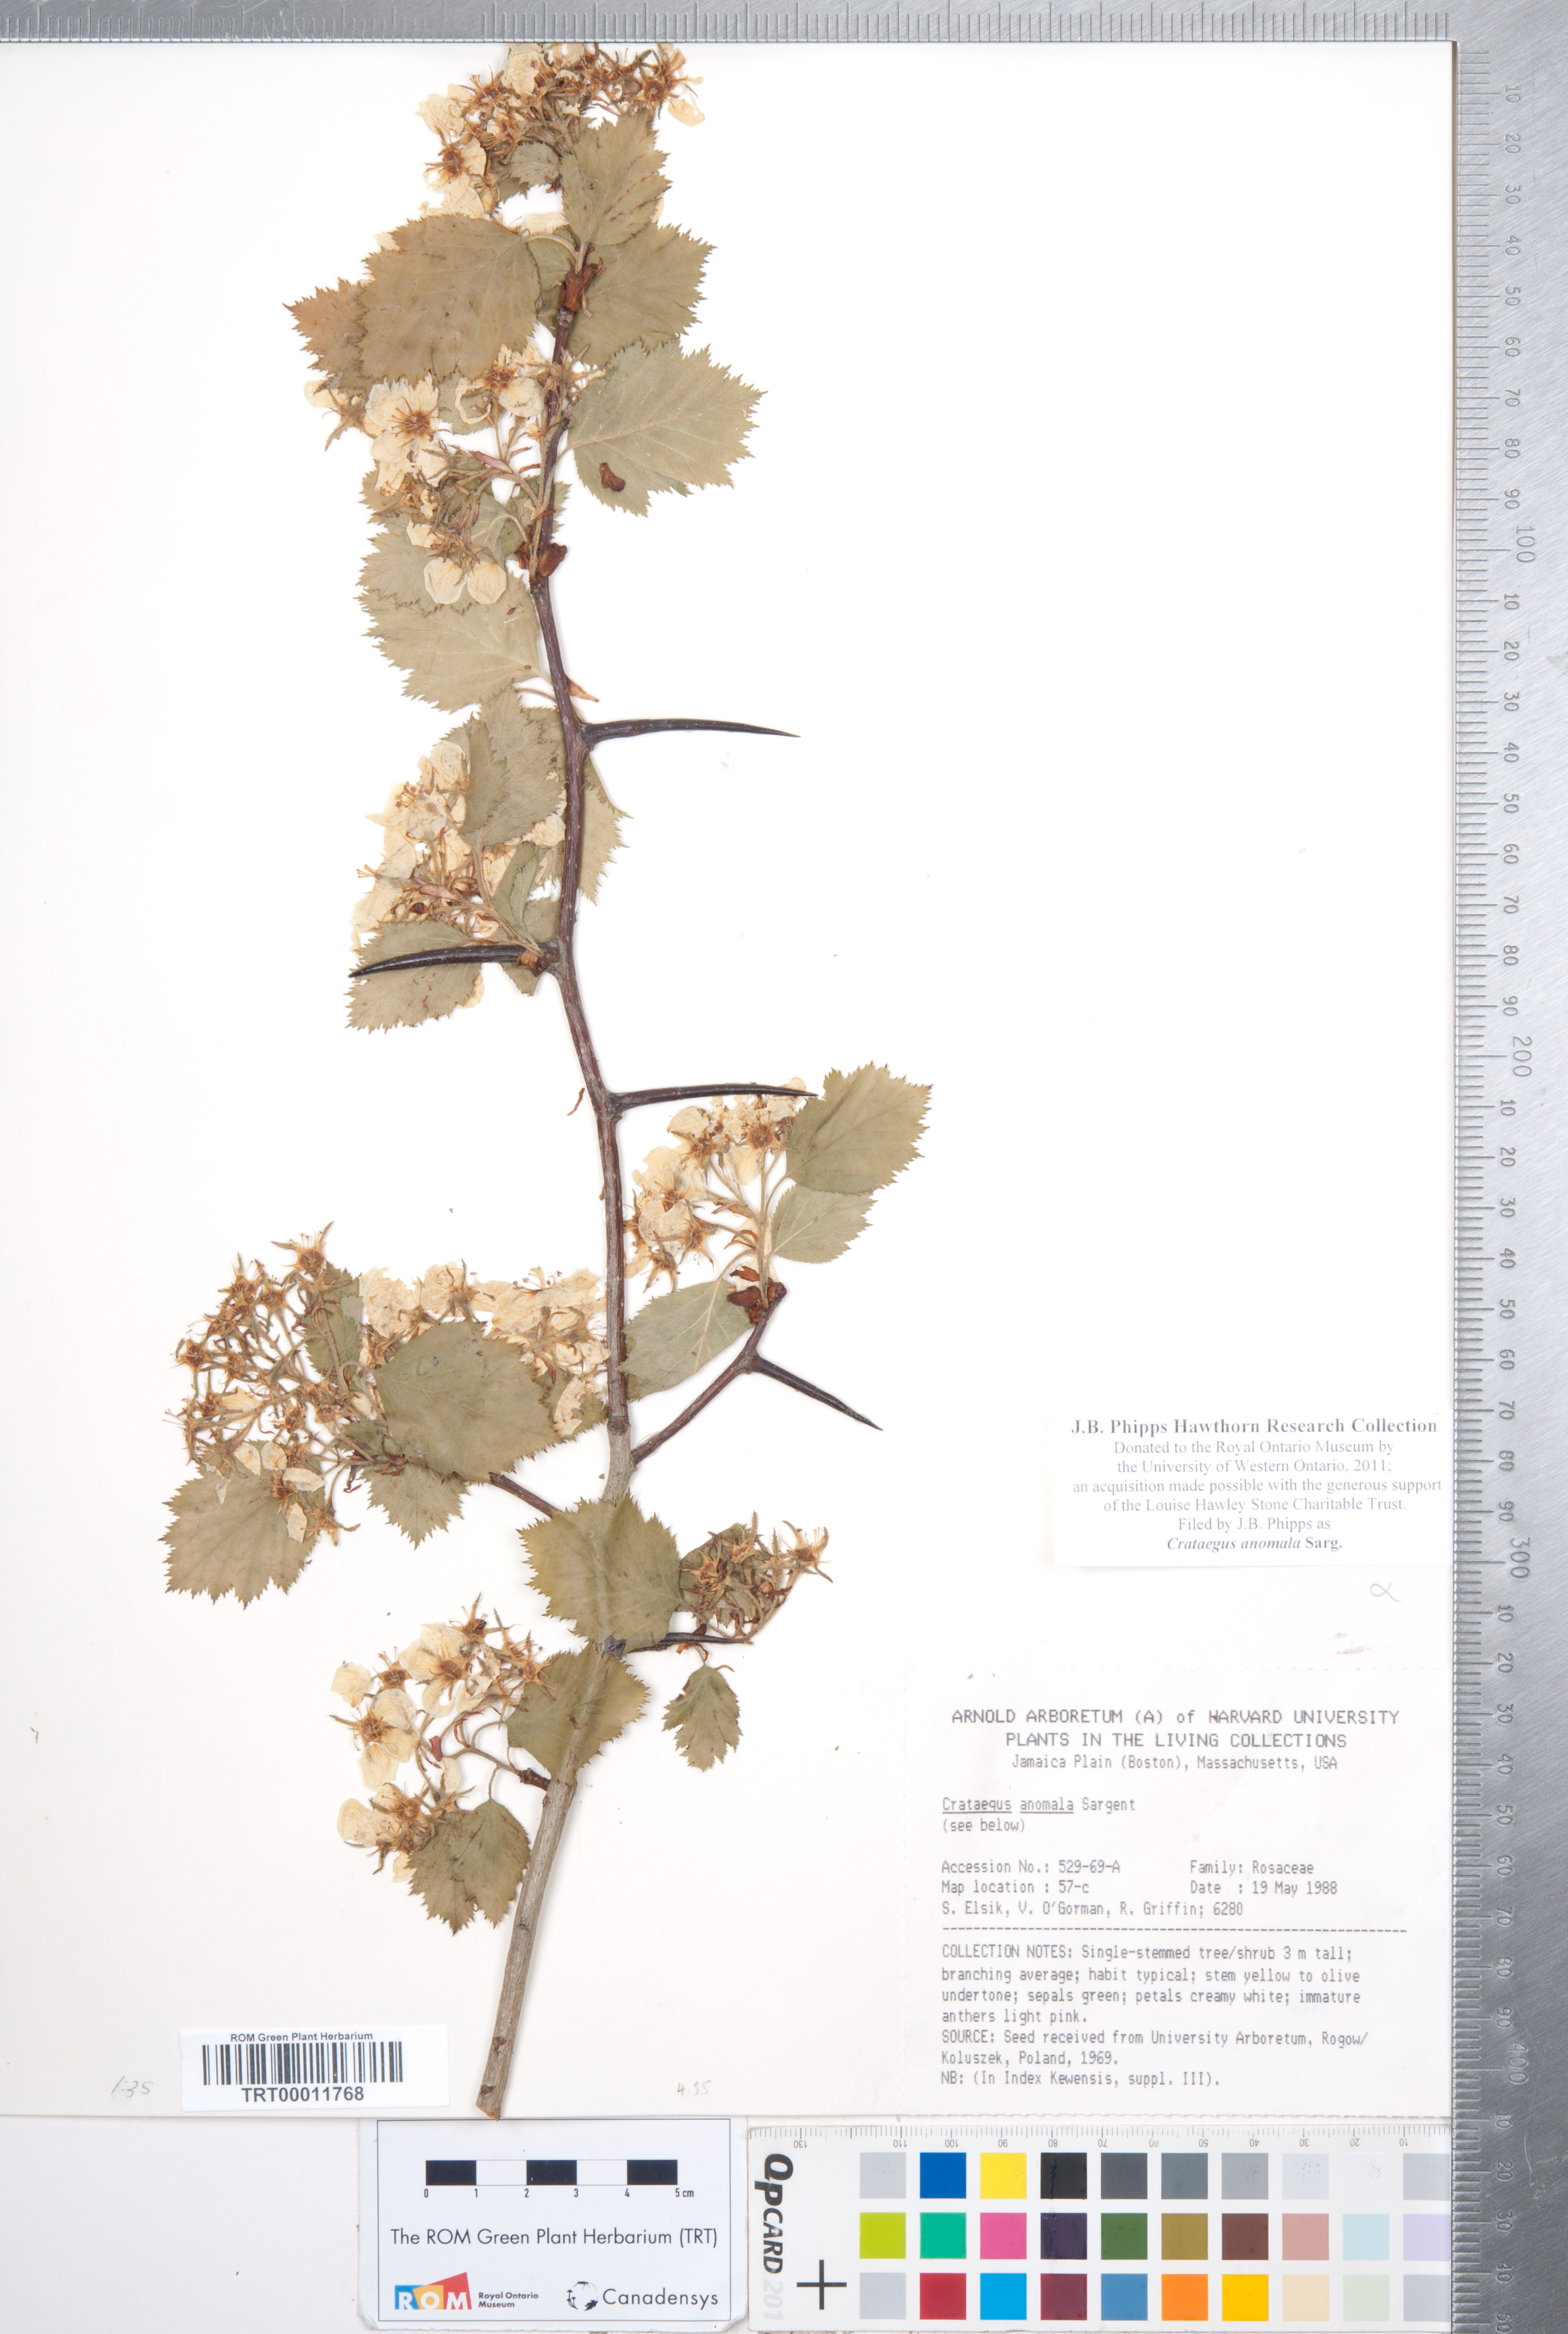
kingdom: Plantae
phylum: Tracheophyta
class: Magnoliopsida
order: Rosales
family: Rosaceae
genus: Crataegus
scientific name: Crataegus holmesiana
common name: Holmes' hawthorn
